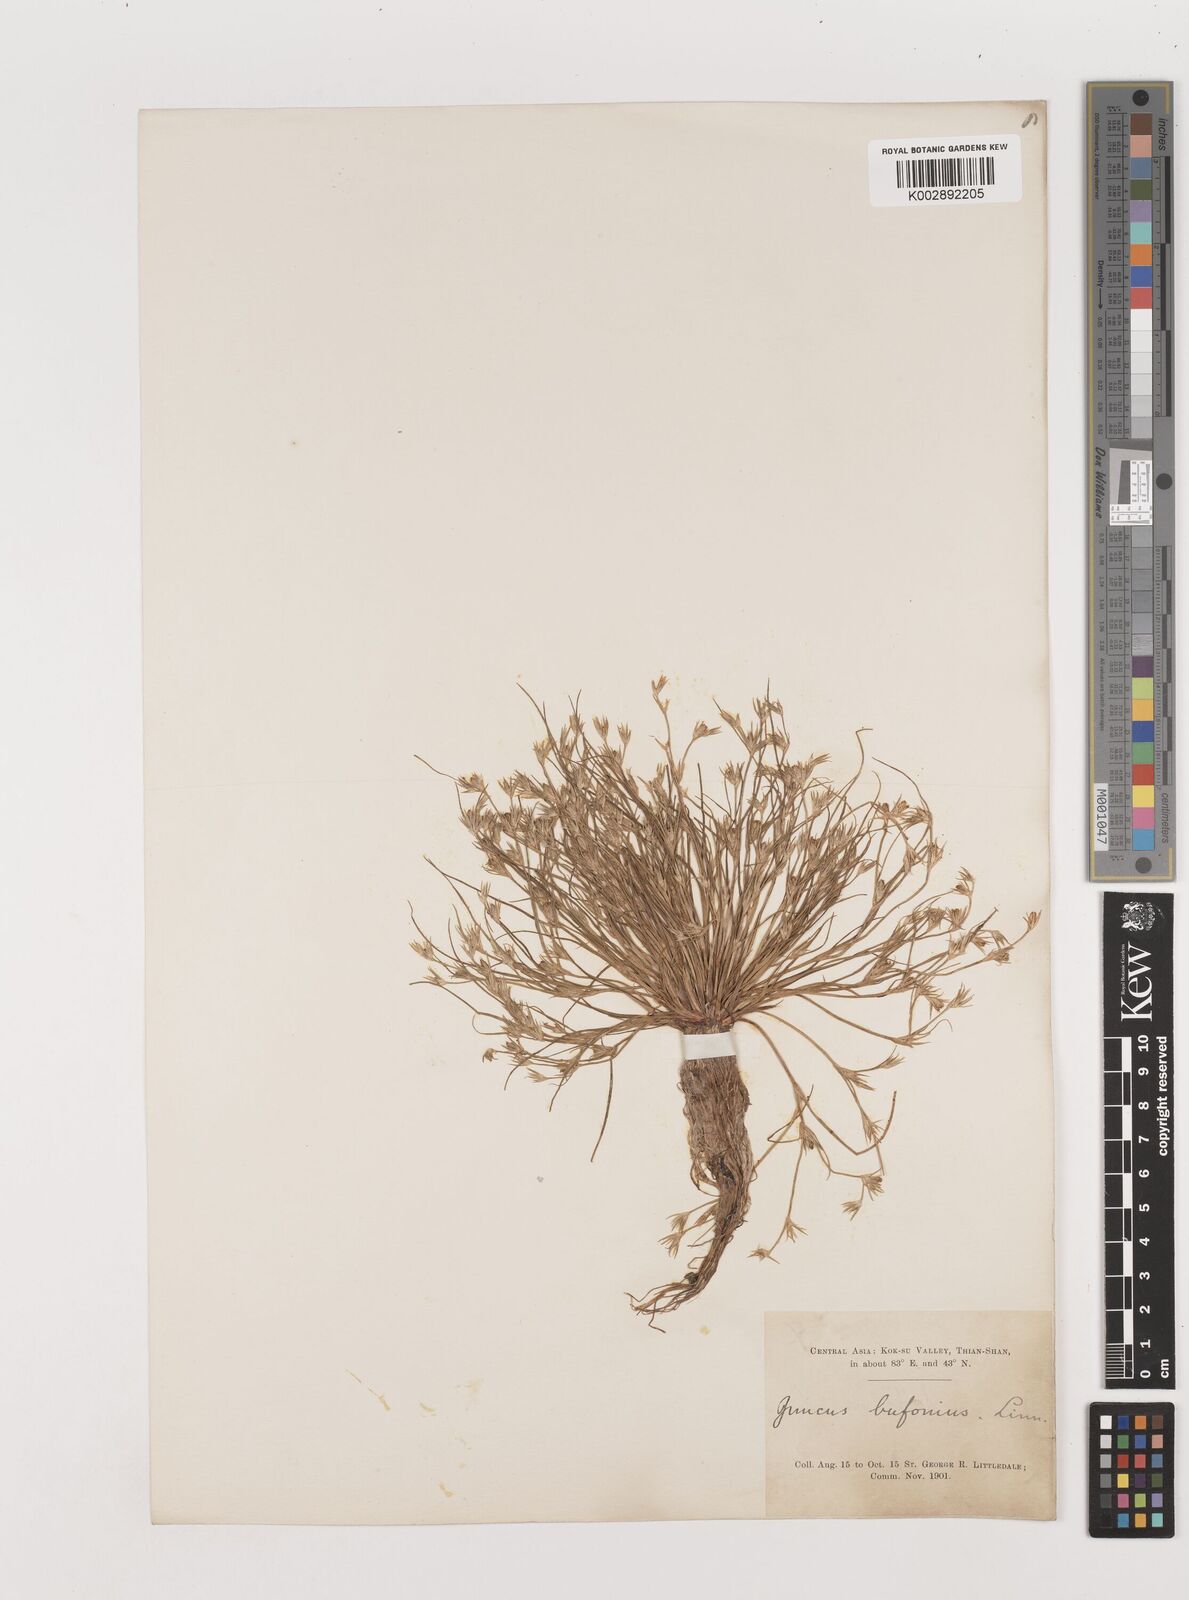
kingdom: Plantae
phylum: Tracheophyta
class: Liliopsida
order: Poales
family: Juncaceae
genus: Juncus
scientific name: Juncus bufonius
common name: Toad rush
